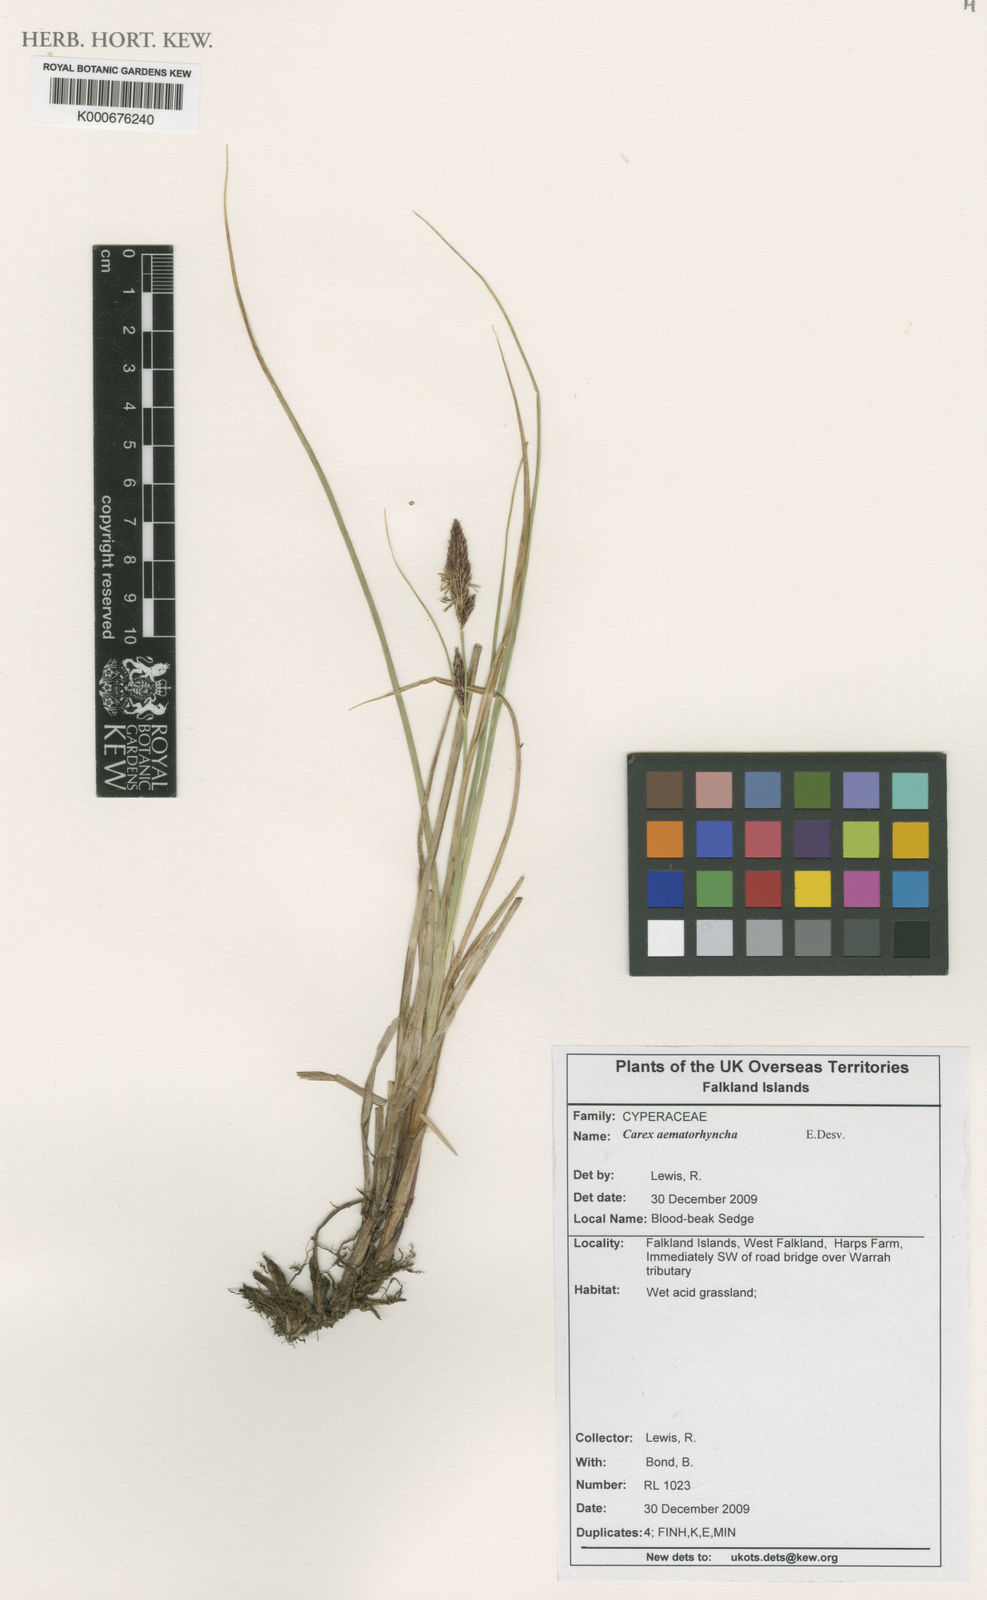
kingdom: Plantae
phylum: Tracheophyta
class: Liliopsida
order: Poales
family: Cyperaceae
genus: Carex
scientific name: Carex aematorhyncha
